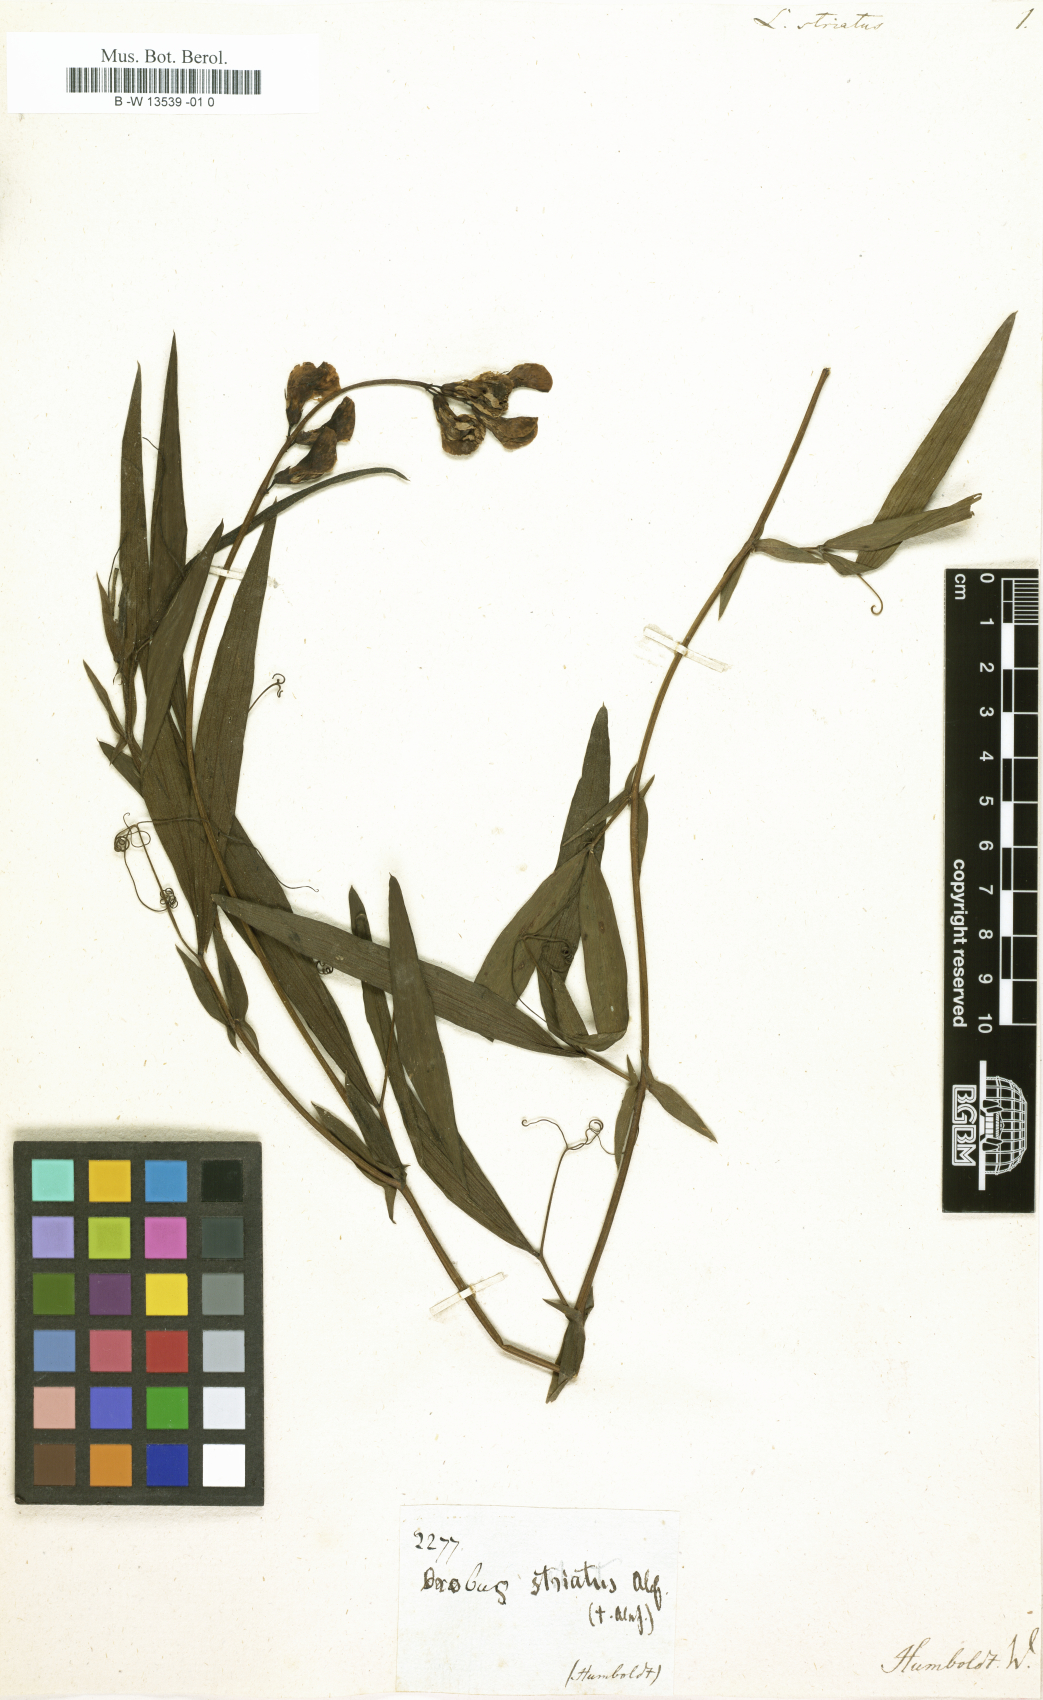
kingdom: Plantae
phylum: Tracheophyta
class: Magnoliopsida
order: Fabales
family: Fabaceae
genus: Lathyrus
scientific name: Lathyrus vestitus
